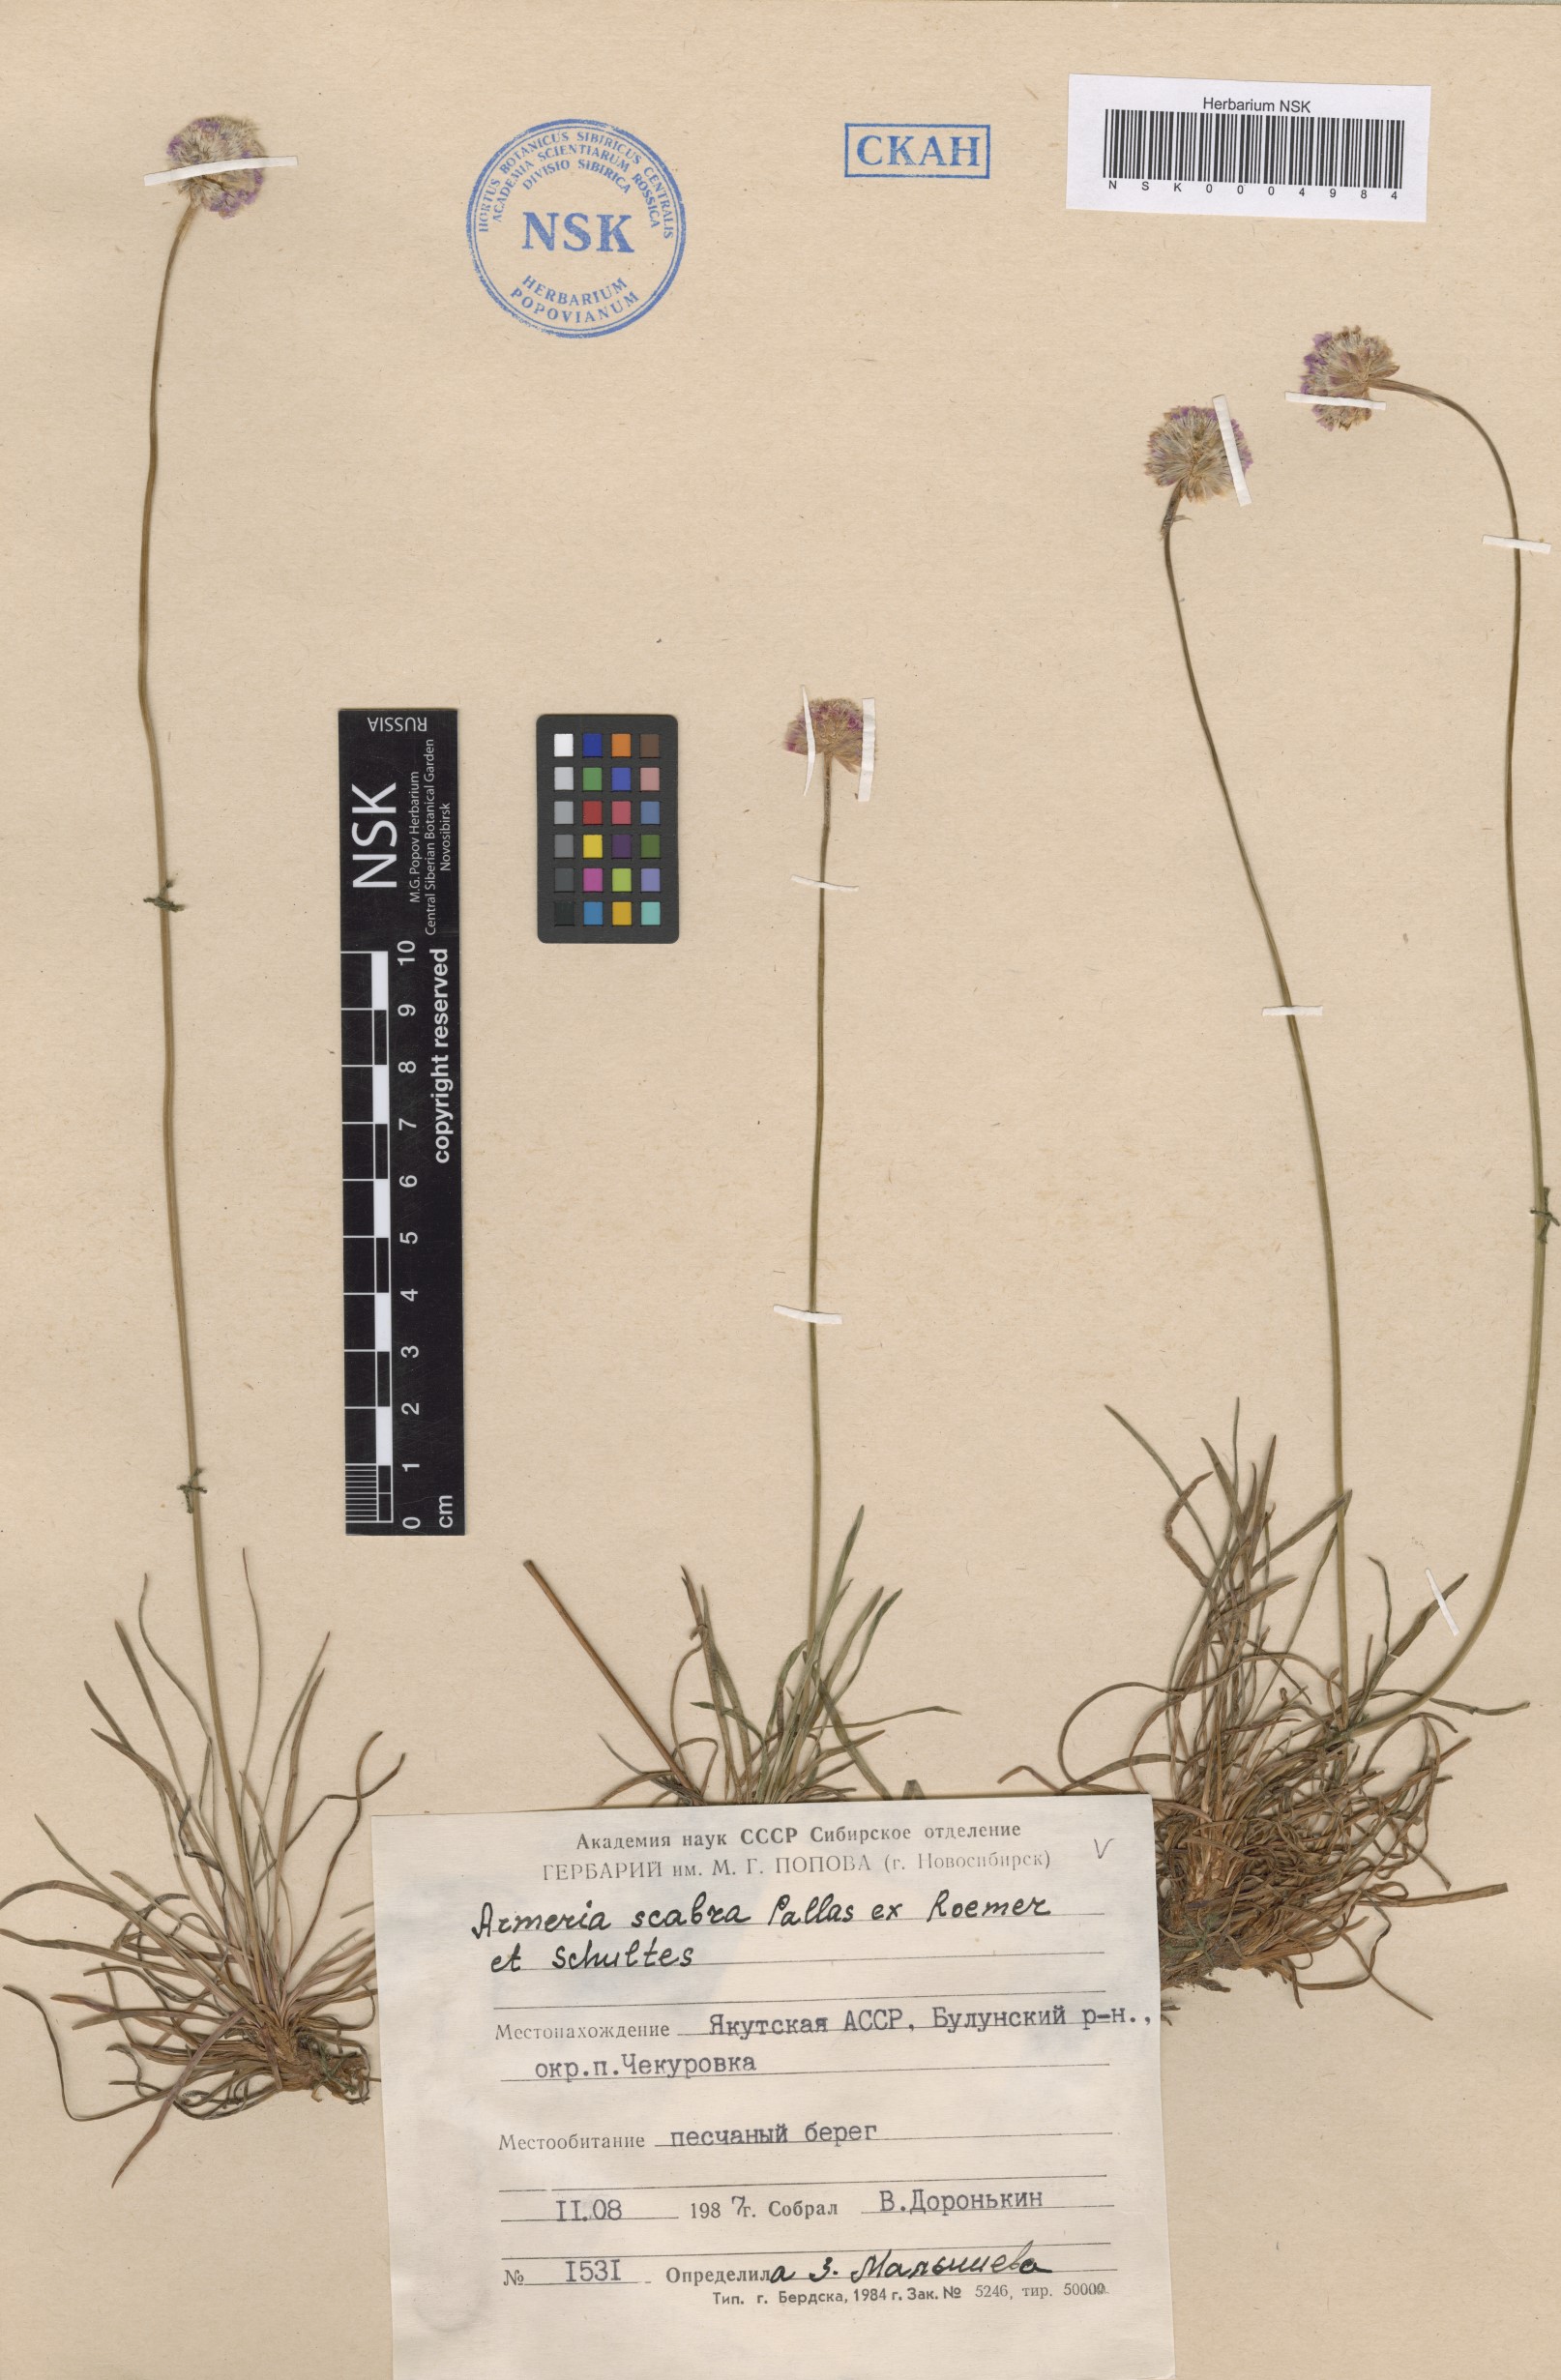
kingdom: Plantae
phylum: Tracheophyta
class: Magnoliopsida
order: Caryophyllales
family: Plumbaginaceae
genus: Armeria
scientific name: Armeria maritima
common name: Thrift
